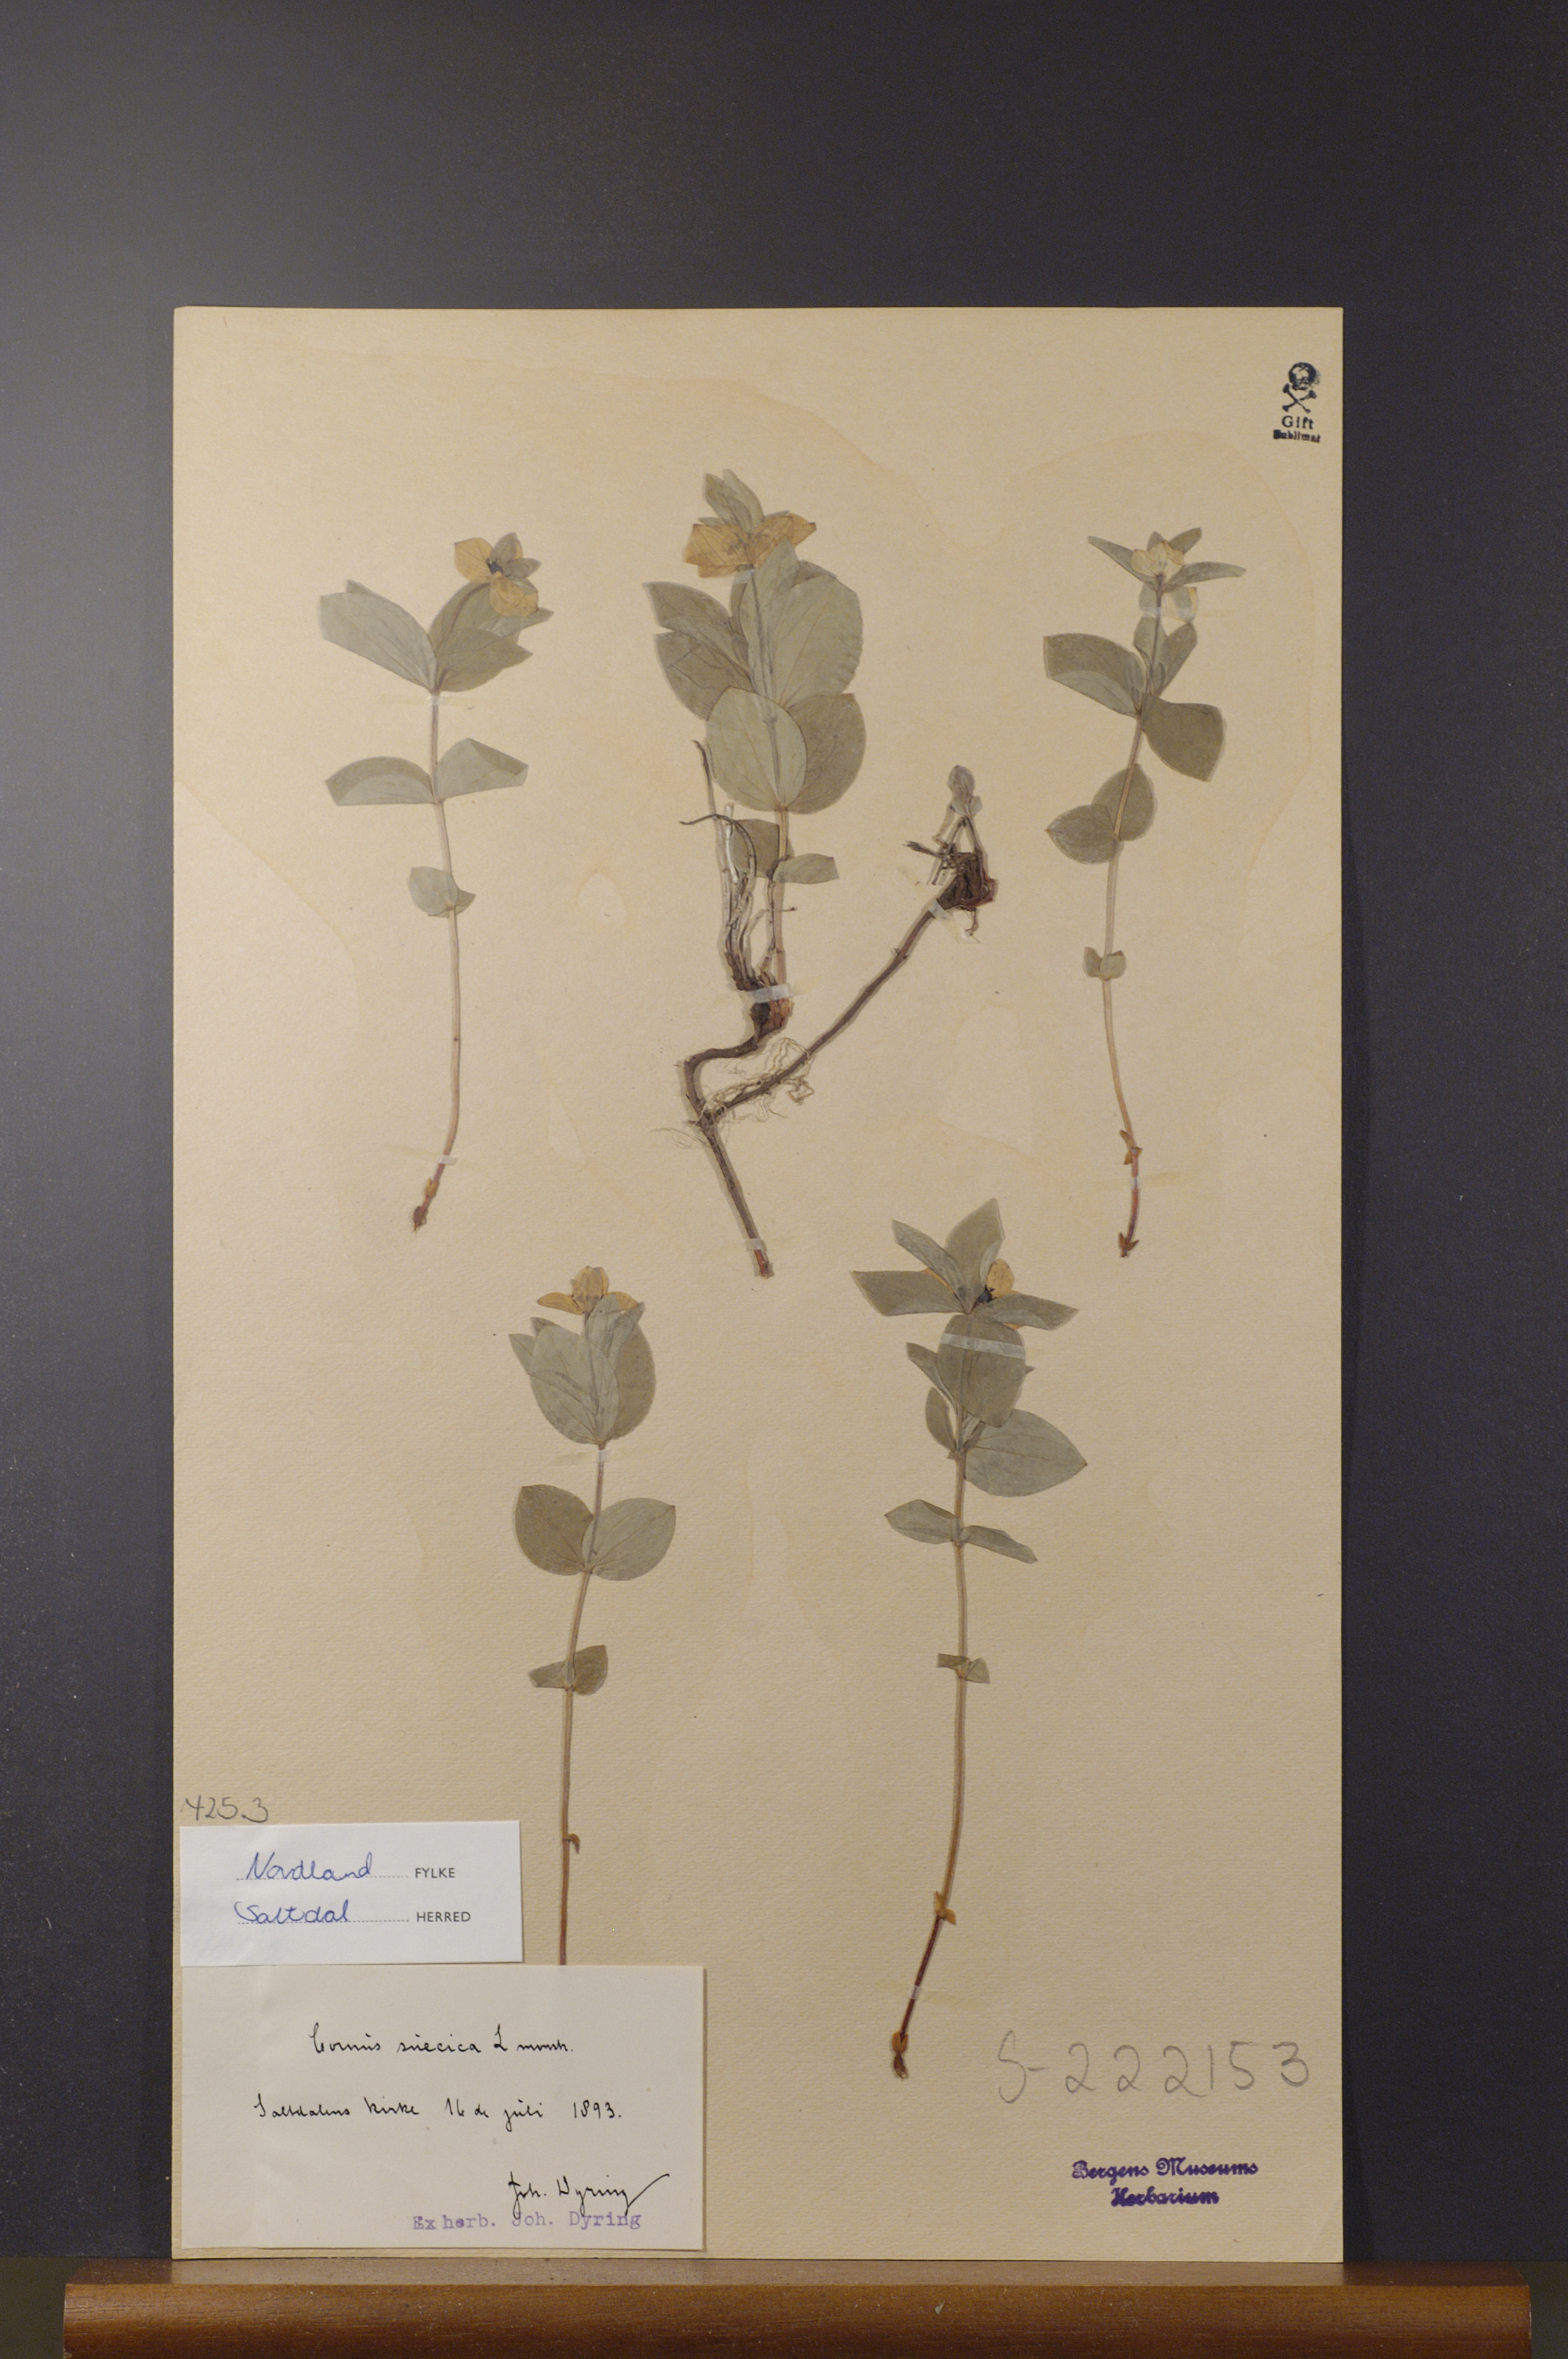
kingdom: Plantae
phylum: Tracheophyta
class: Magnoliopsida
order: Cornales
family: Cornaceae
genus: Cornus
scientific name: Cornus suecica
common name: Dwarf cornel
